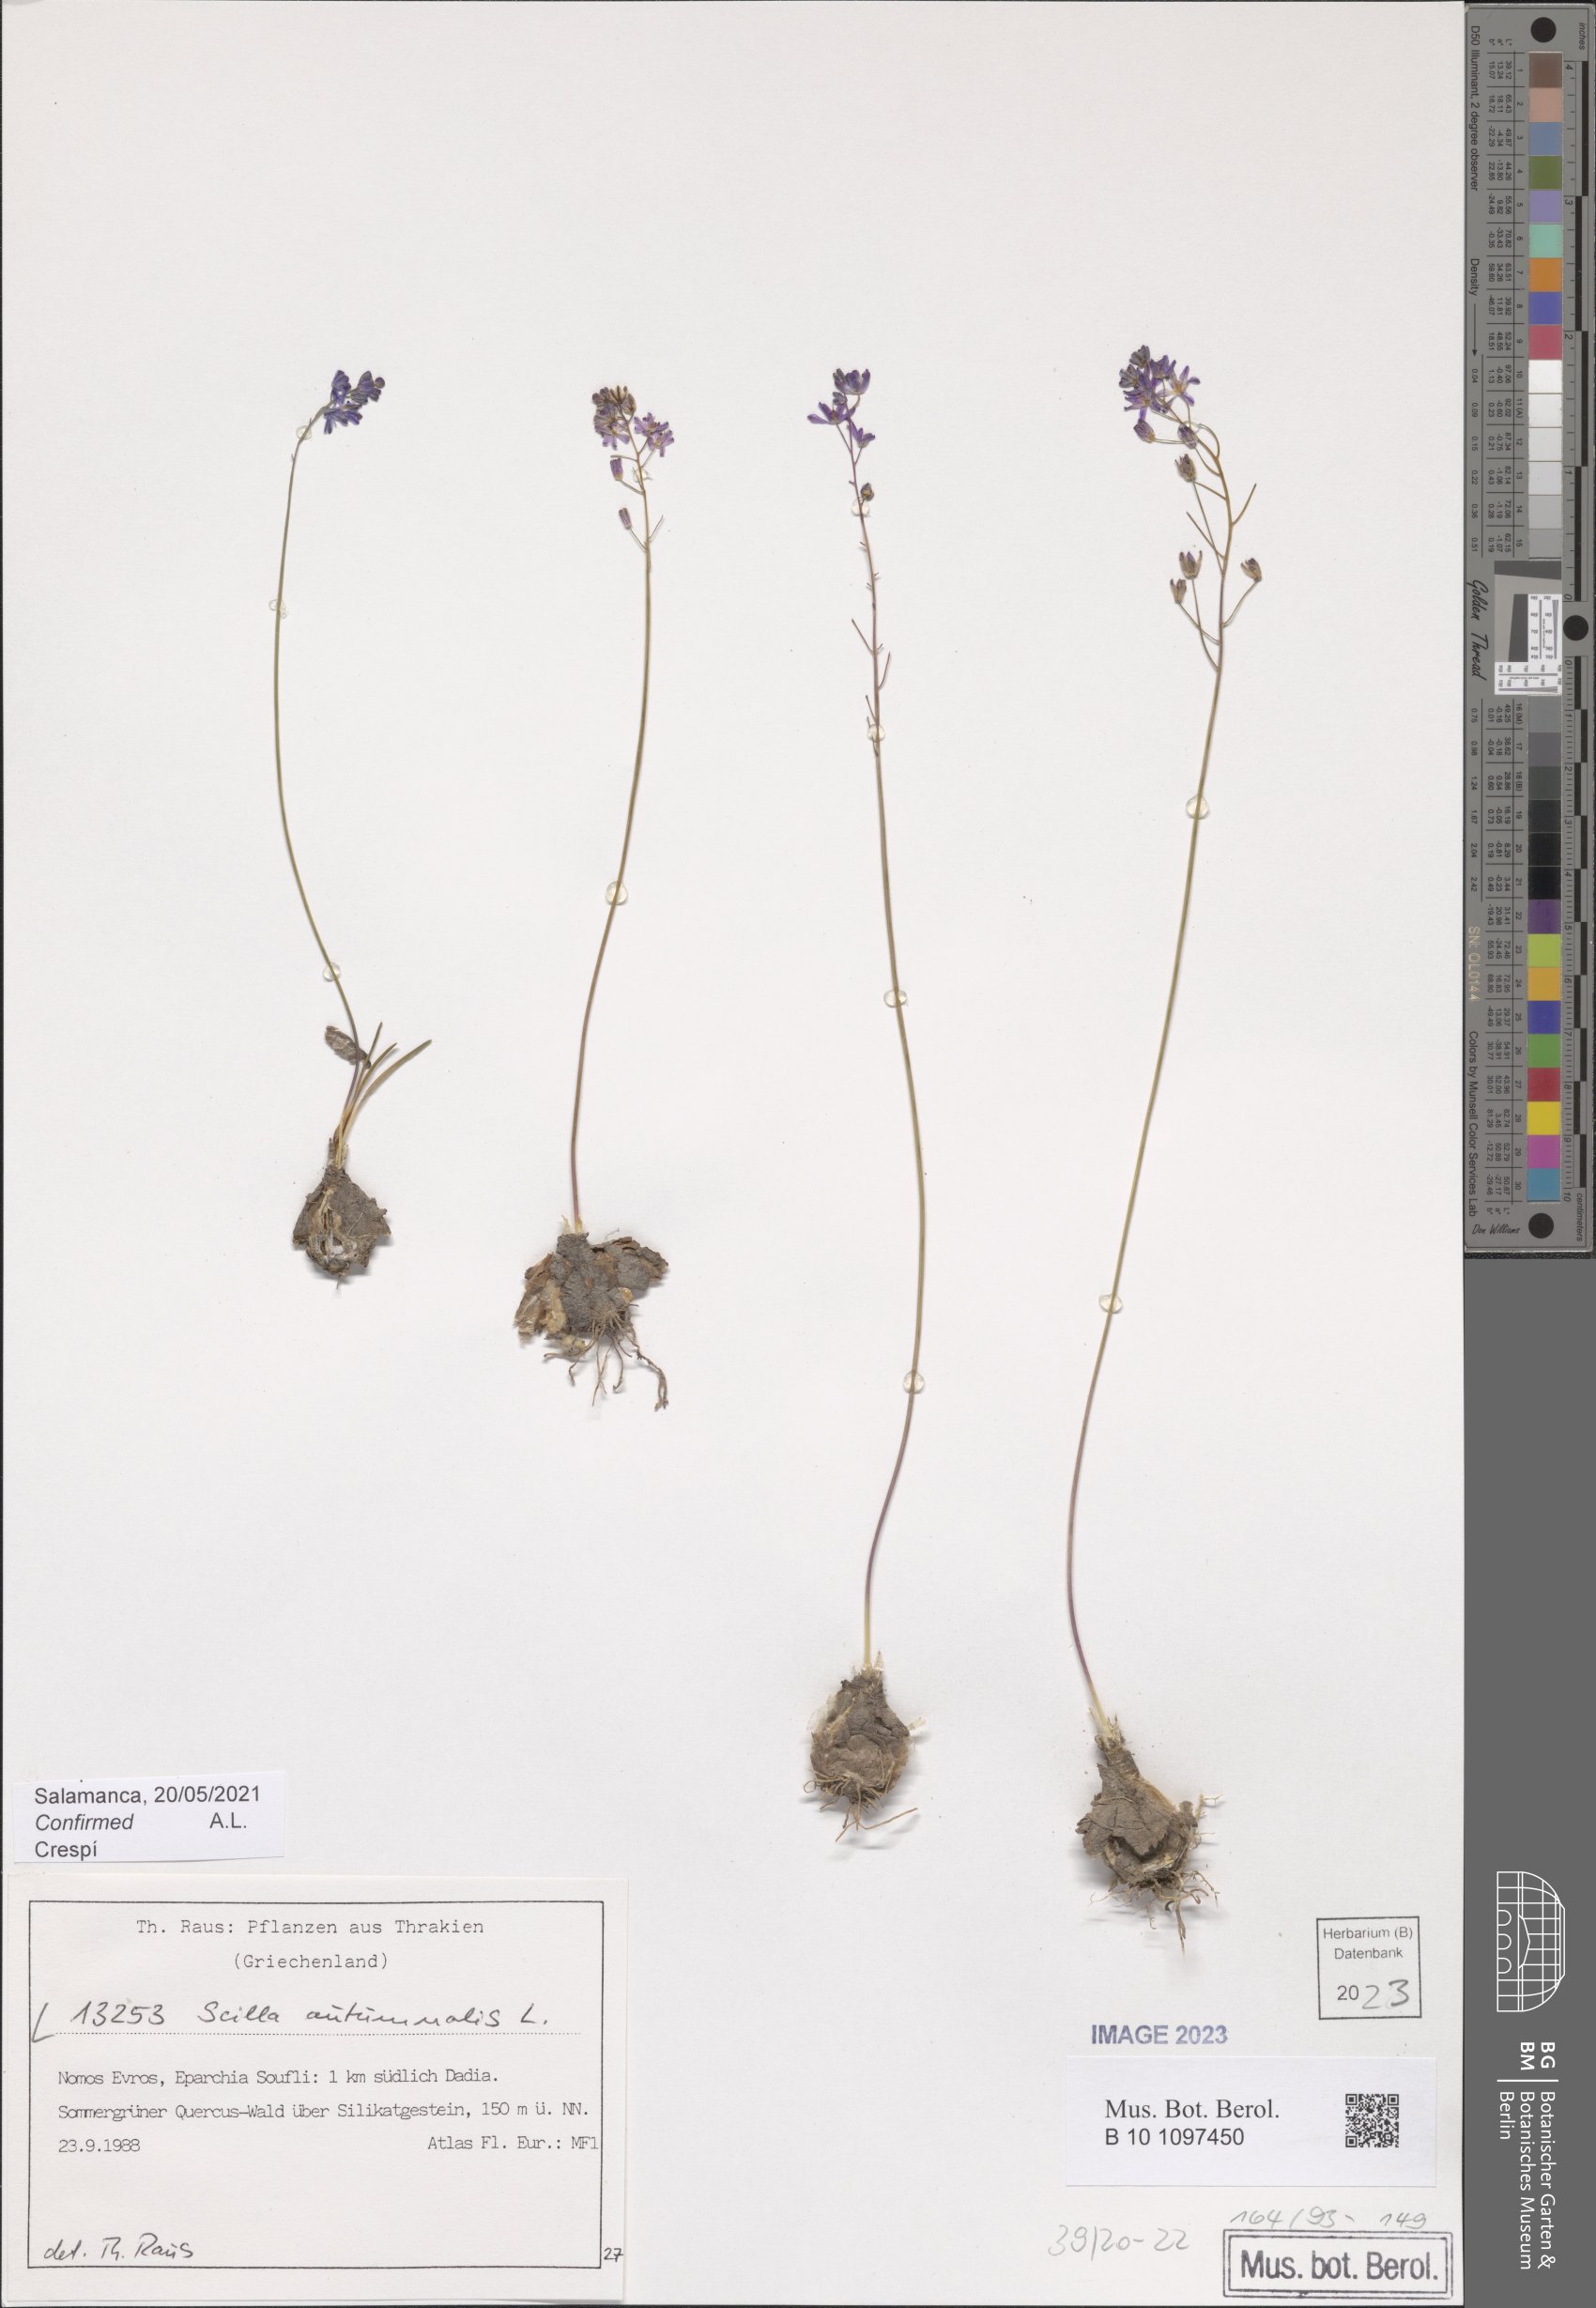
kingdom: Plantae
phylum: Tracheophyta
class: Liliopsida
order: Asparagales
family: Asparagaceae
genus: Prospero
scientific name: Prospero autumnale
